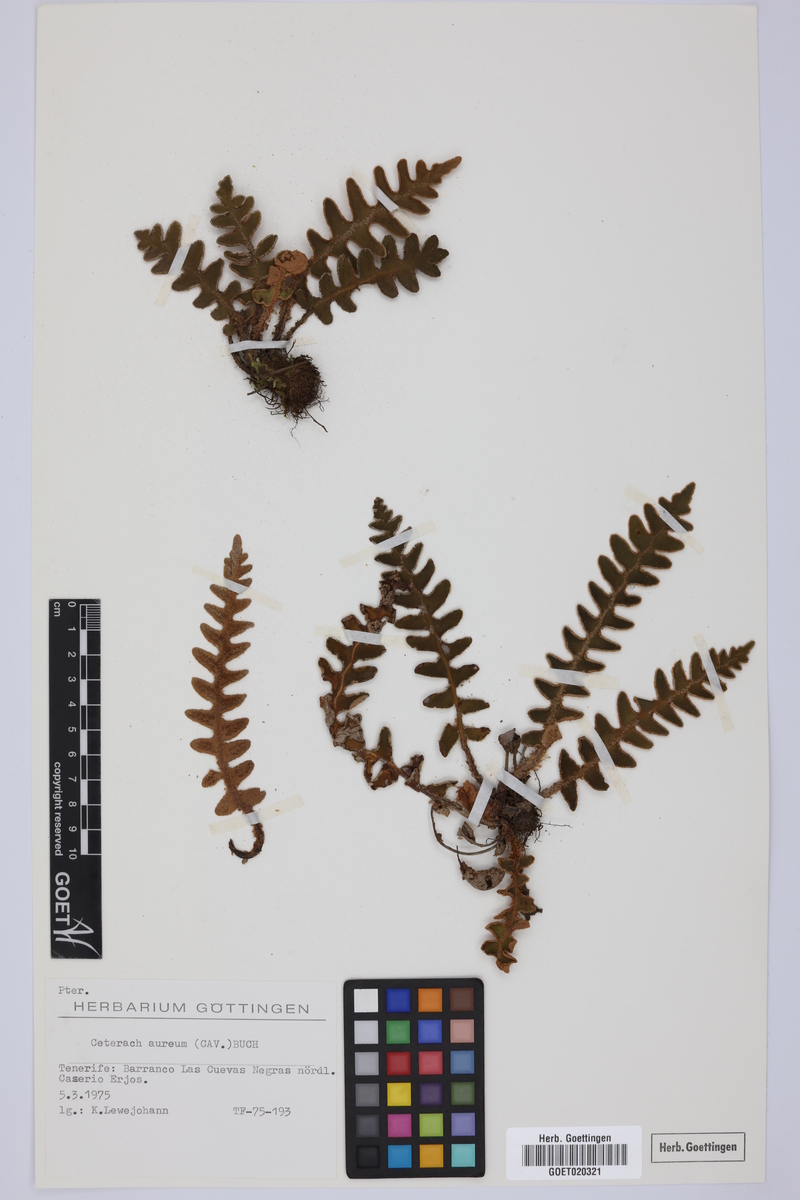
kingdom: Plantae
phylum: Tracheophyta
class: Polypodiopsida
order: Polypodiales
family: Aspleniaceae
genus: Asplenium
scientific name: Asplenium aureum
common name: Golden rustyback fern
